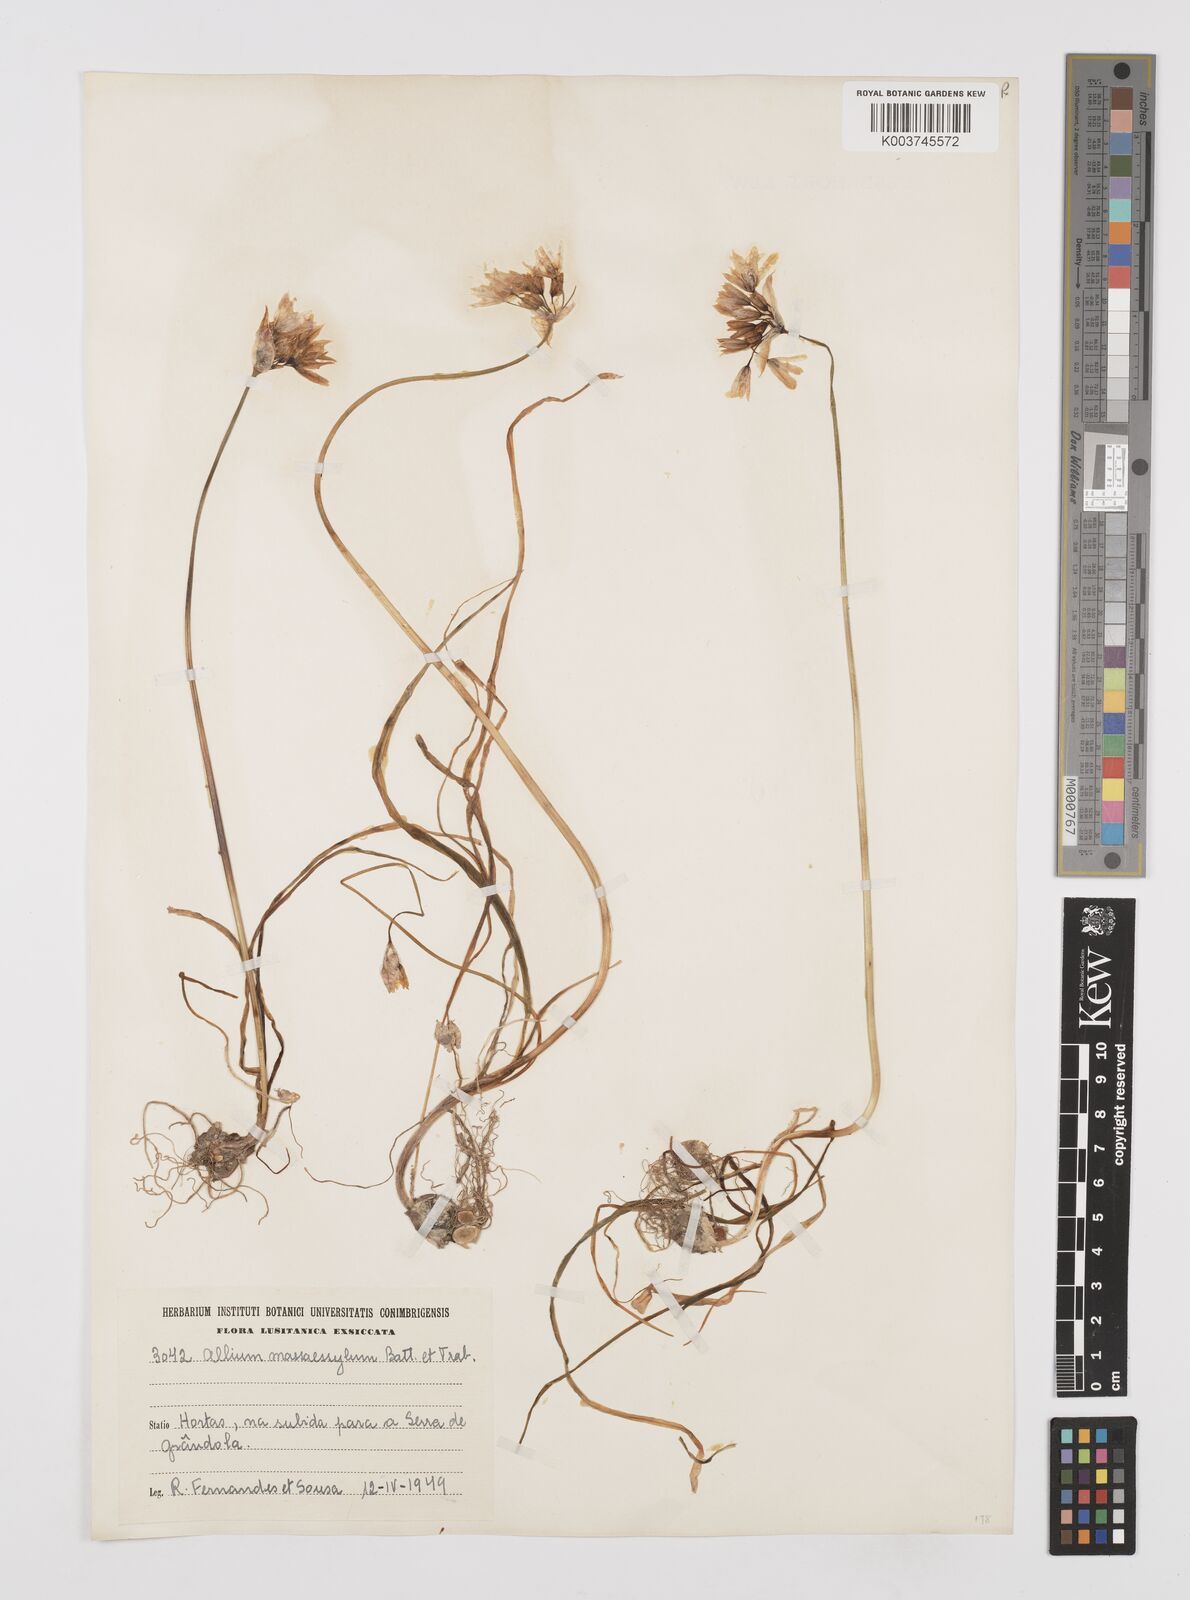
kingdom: Plantae
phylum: Tracheophyta
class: Liliopsida
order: Asparagales
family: Amaryllidaceae
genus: Allium
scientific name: Allium massaessylum
